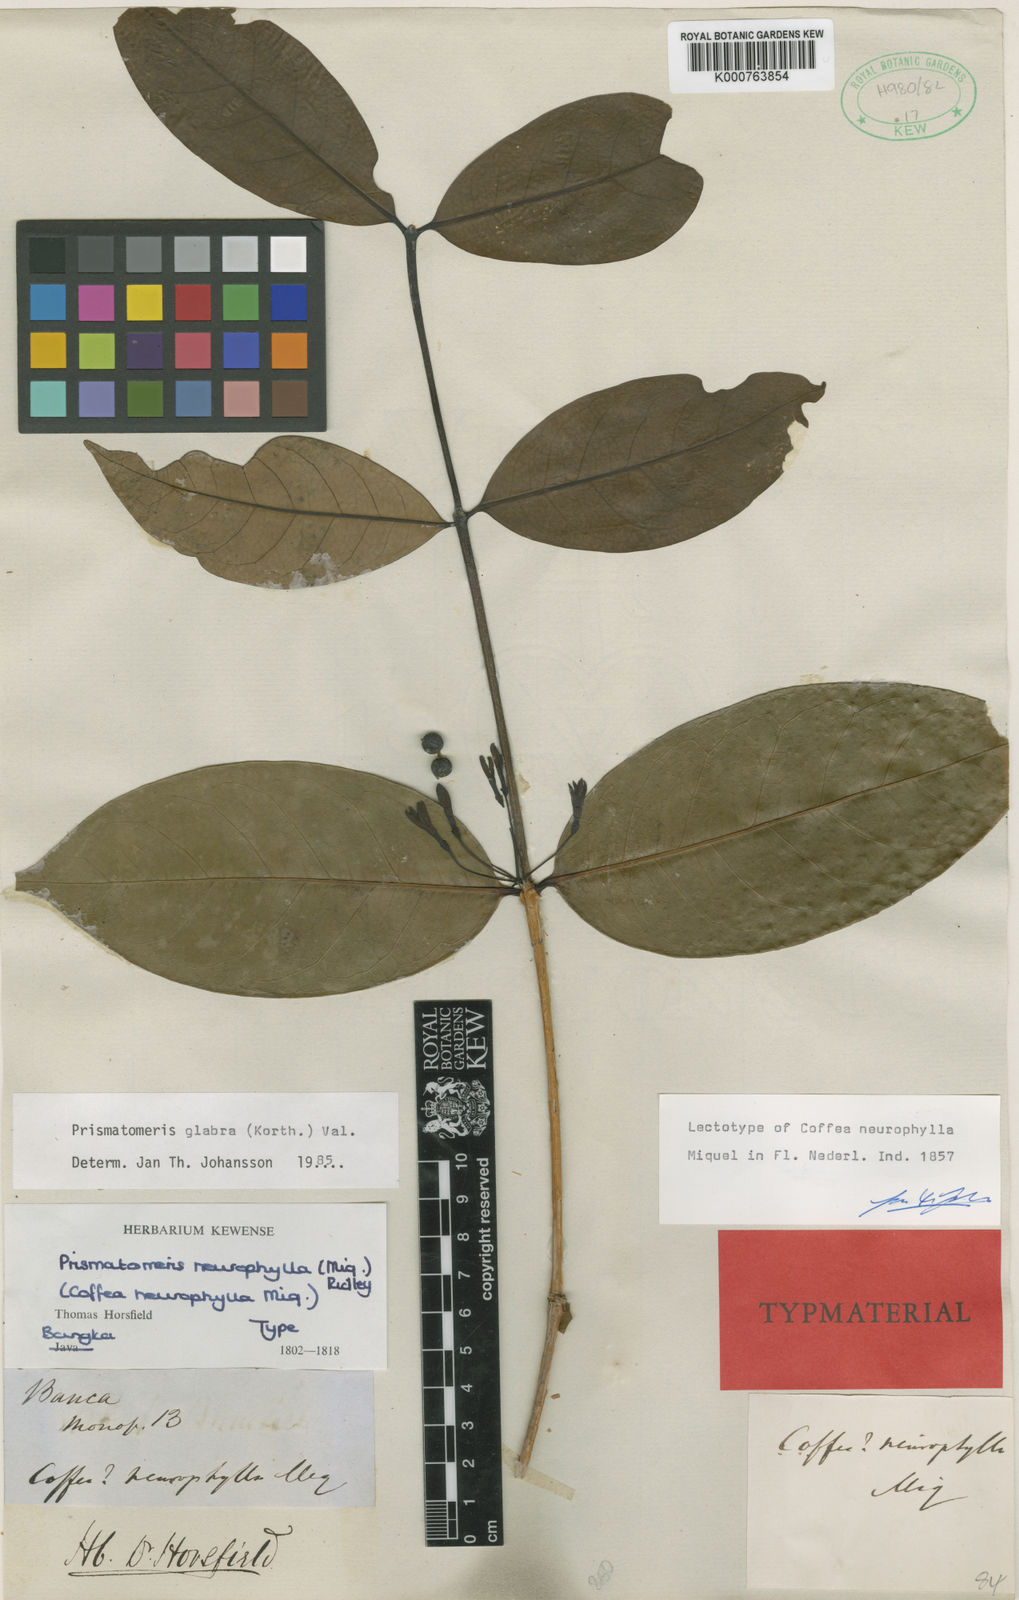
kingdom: Plantae
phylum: Tracheophyta
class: Magnoliopsida
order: Gentianales
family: Rubiaceae
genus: Prismatomeris
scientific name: Prismatomeris glabra
